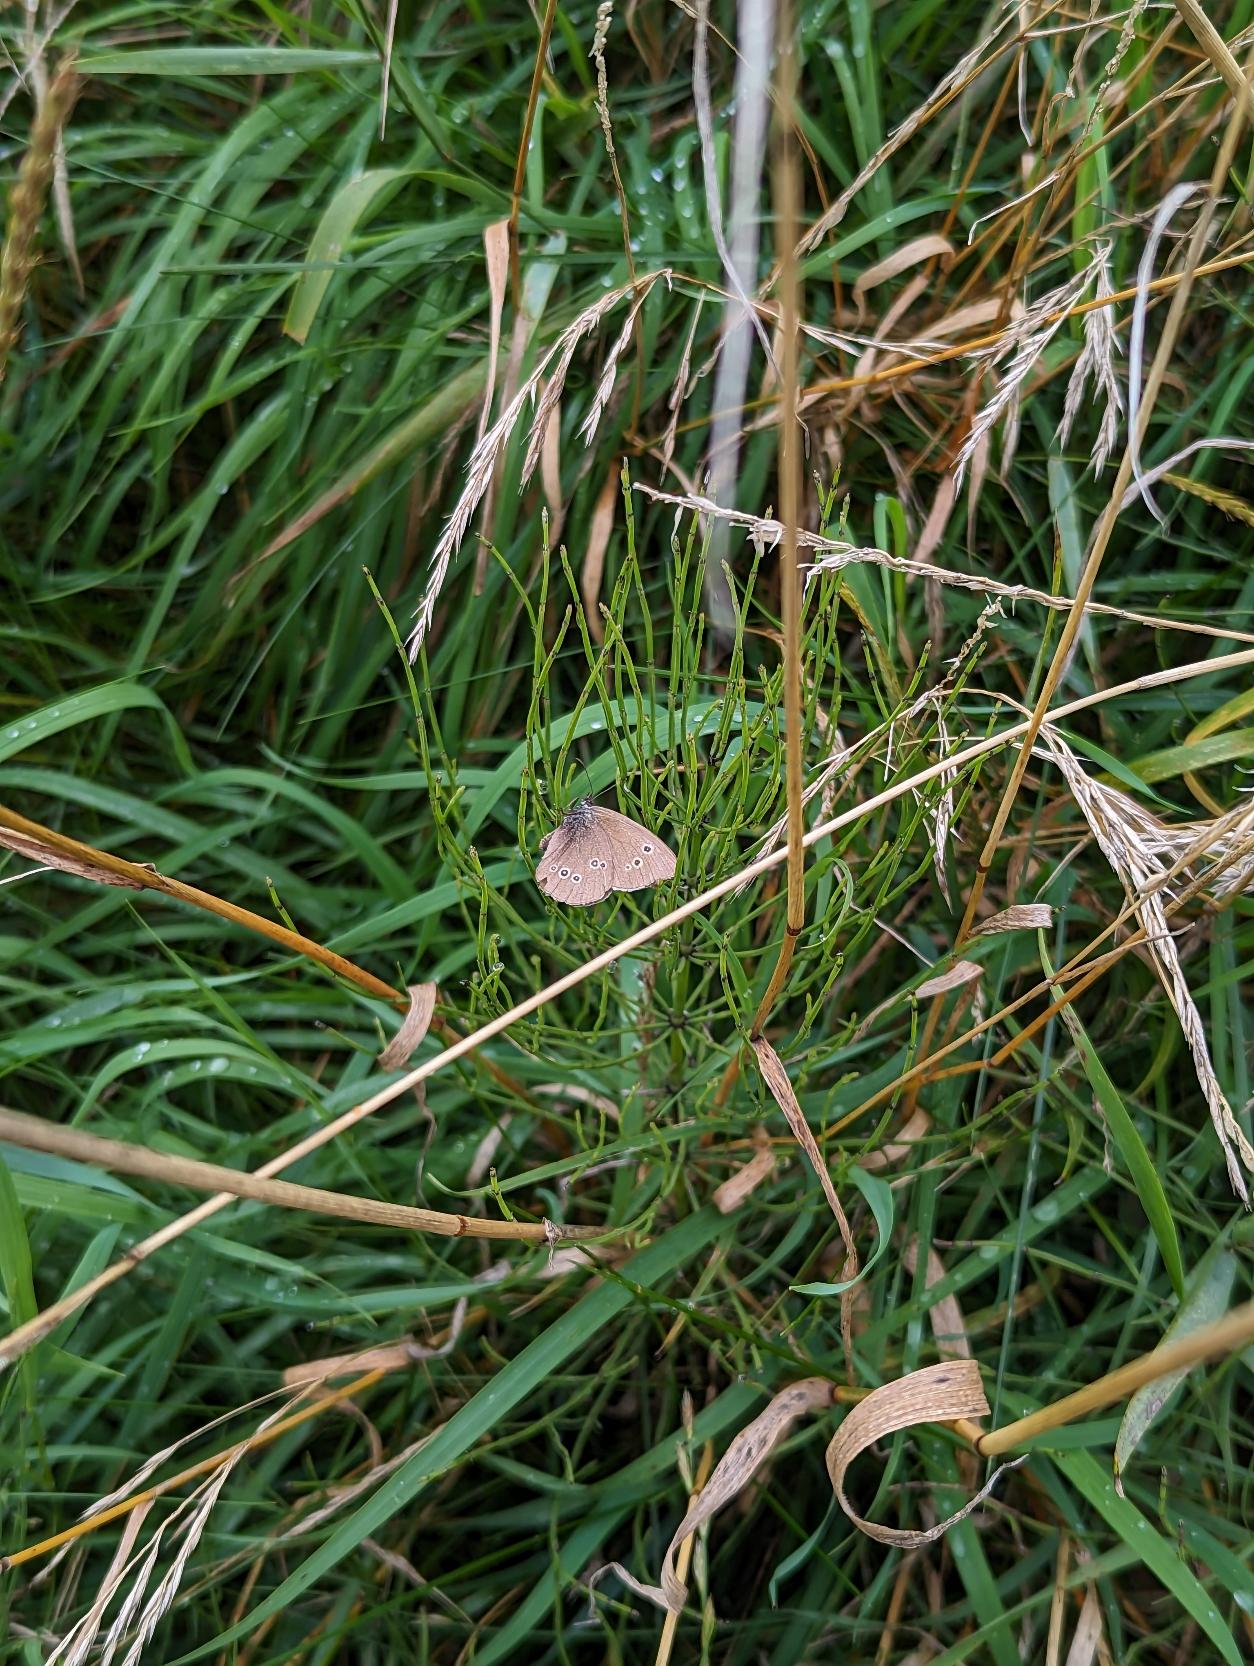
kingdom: Animalia
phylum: Arthropoda
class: Insecta
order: Lepidoptera
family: Nymphalidae
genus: Aphantopus
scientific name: Aphantopus hyperantus
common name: Engrandøje
